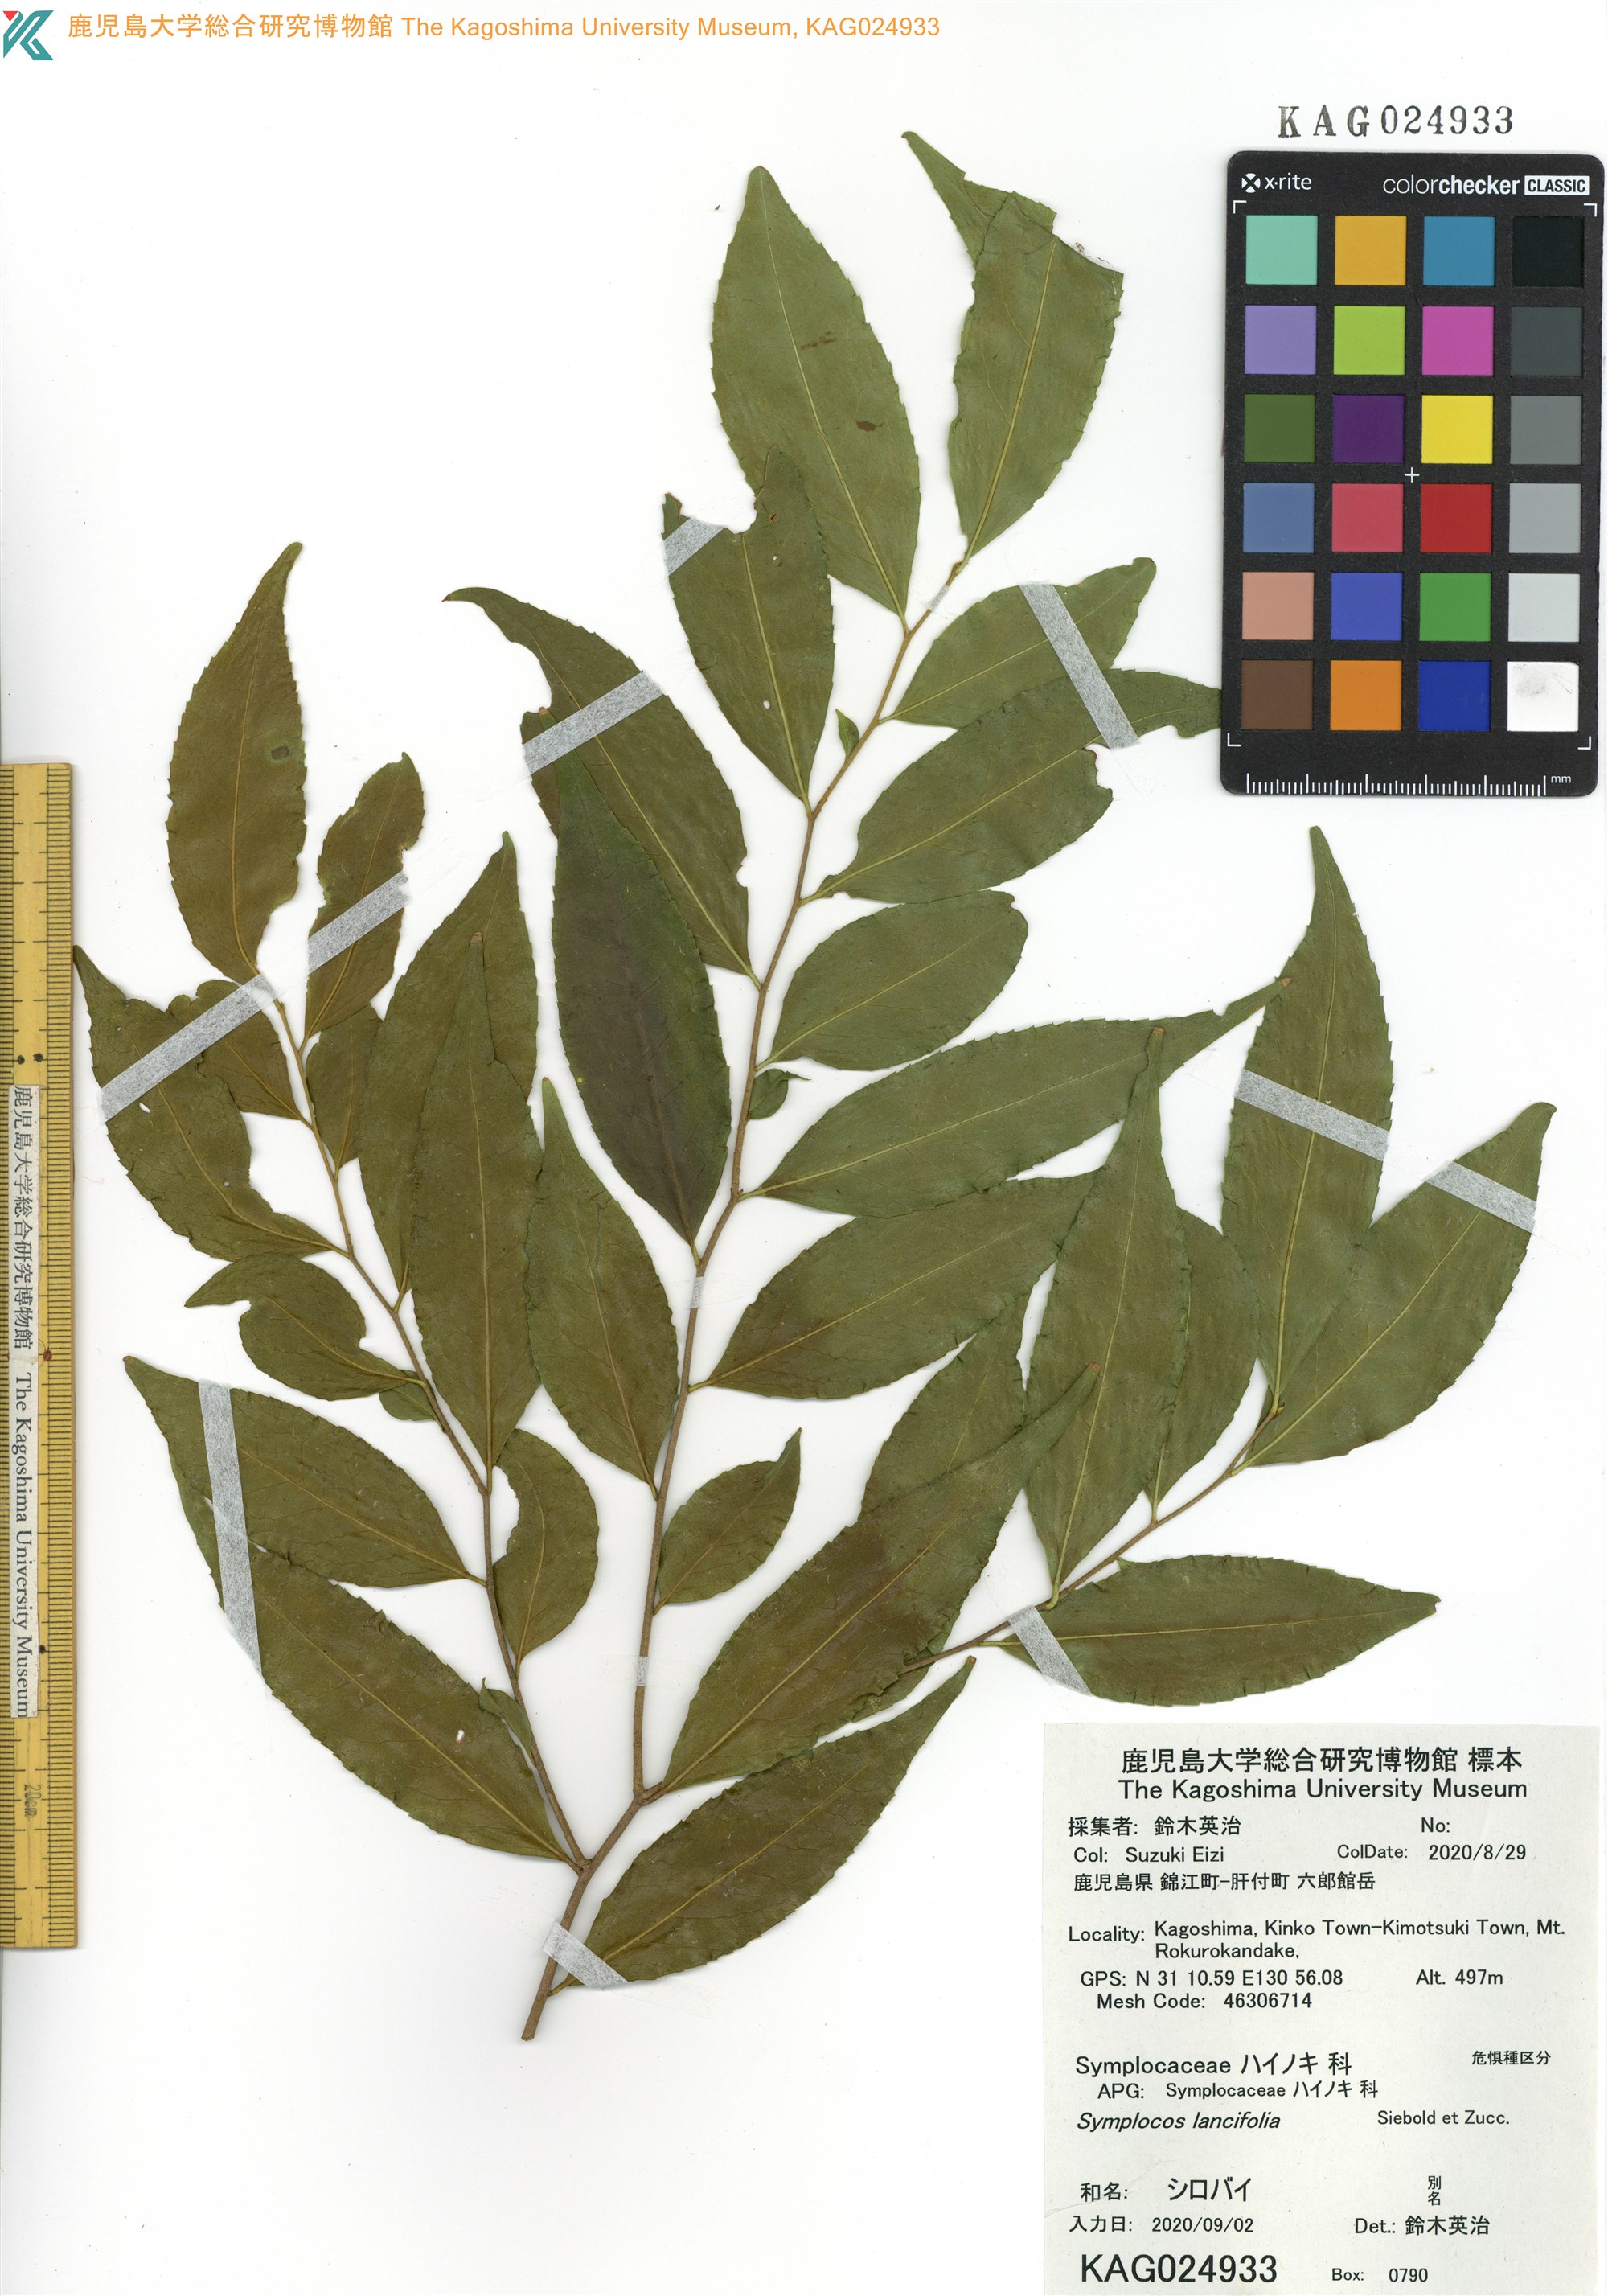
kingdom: Plantae
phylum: Tracheophyta
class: Magnoliopsida
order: Ericales
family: Symplocaceae
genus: Symplocos
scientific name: Symplocos lancifolia
